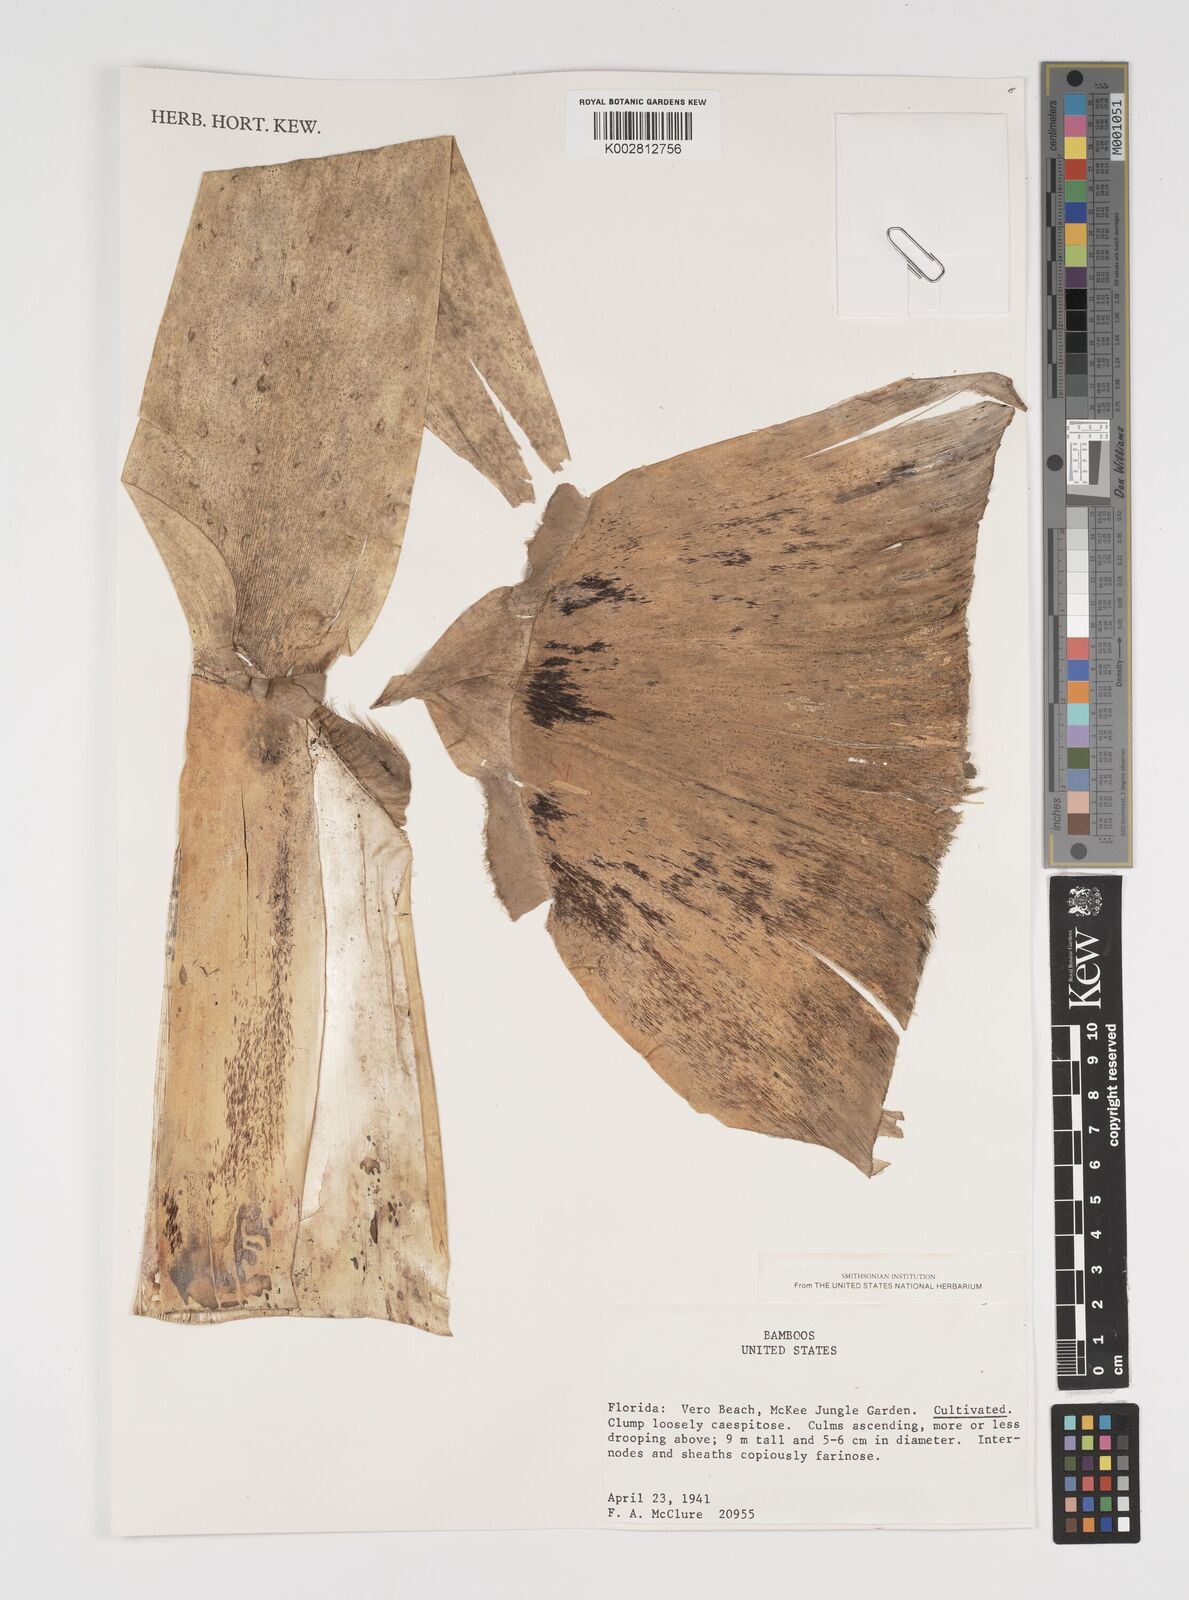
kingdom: Plantae
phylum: Tracheophyta
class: Liliopsida
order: Poales
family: Poaceae
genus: Arundinaria
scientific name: Arundinaria
